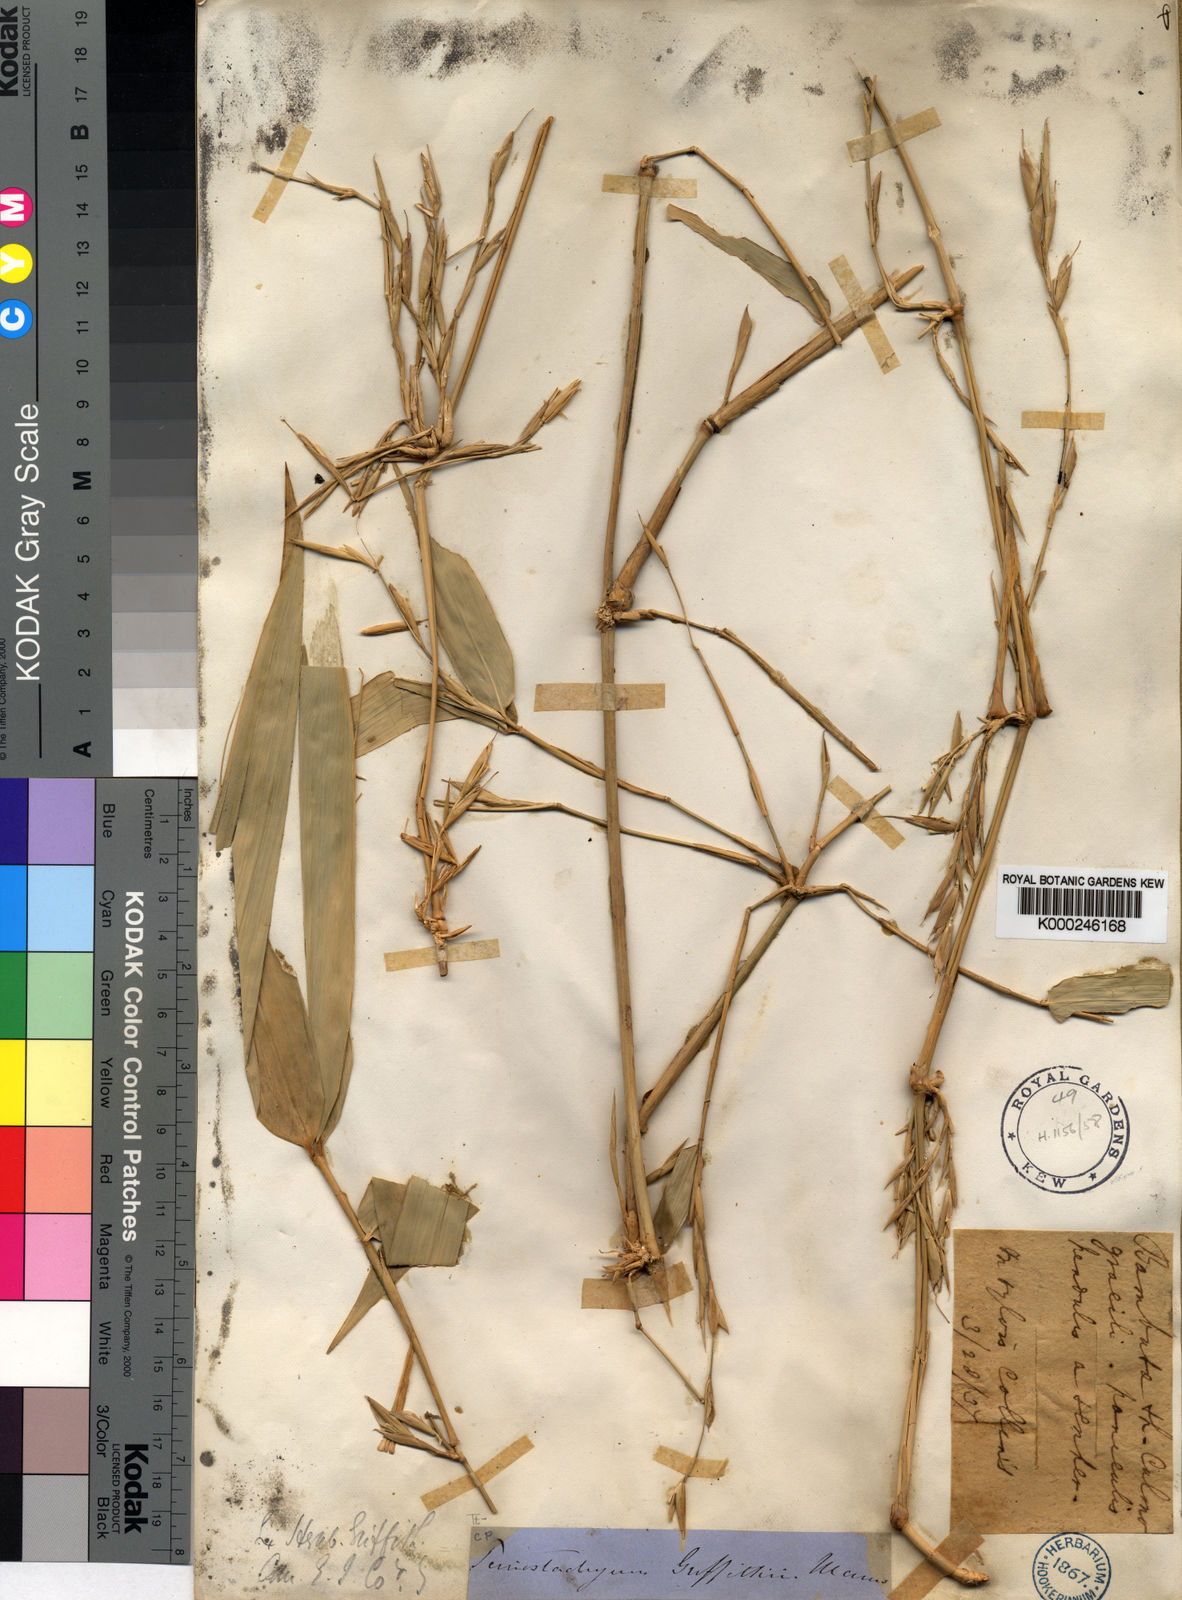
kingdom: Plantae
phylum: Tracheophyta
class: Liliopsida
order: Poales
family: Poaceae
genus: Schizostachyum
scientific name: Schizostachyum griffithii
